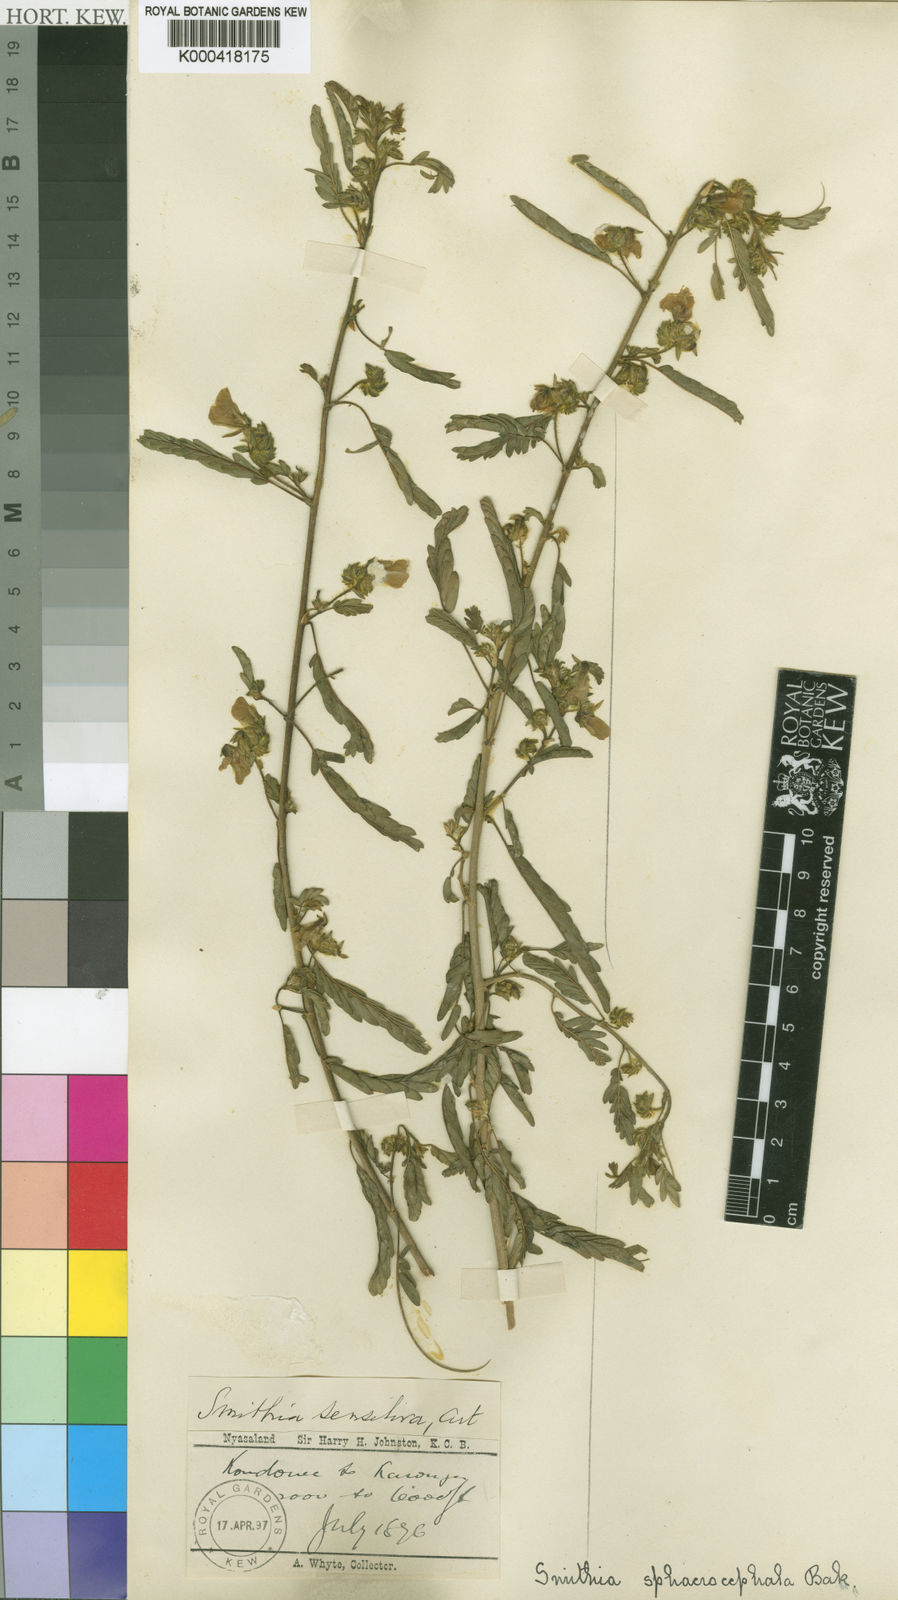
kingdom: Plantae
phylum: Tracheophyta
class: Magnoliopsida
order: Fabales
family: Fabaceae
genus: Kotschya
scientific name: Kotschya aeschynomenoides
